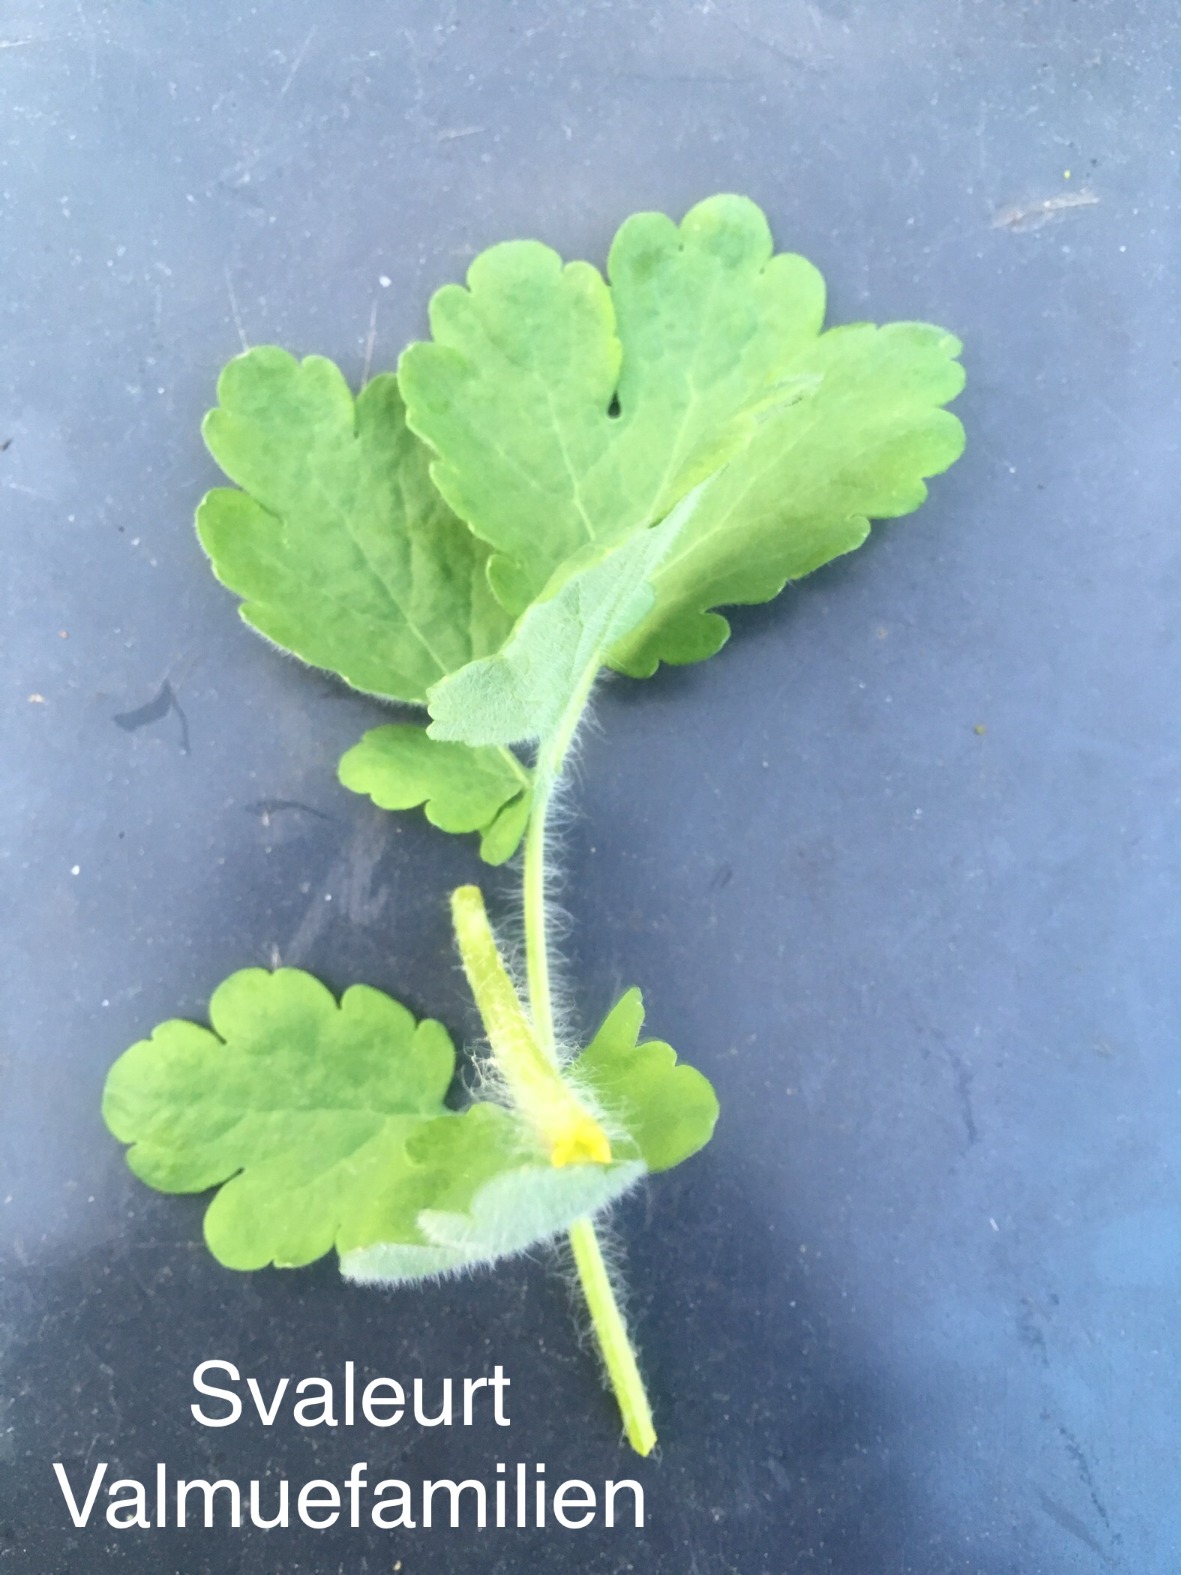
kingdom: Plantae
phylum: Tracheophyta
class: Magnoliopsida
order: Ranunculales
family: Papaveraceae
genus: Chelidonium
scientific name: Chelidonium majus
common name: Svaleurt
